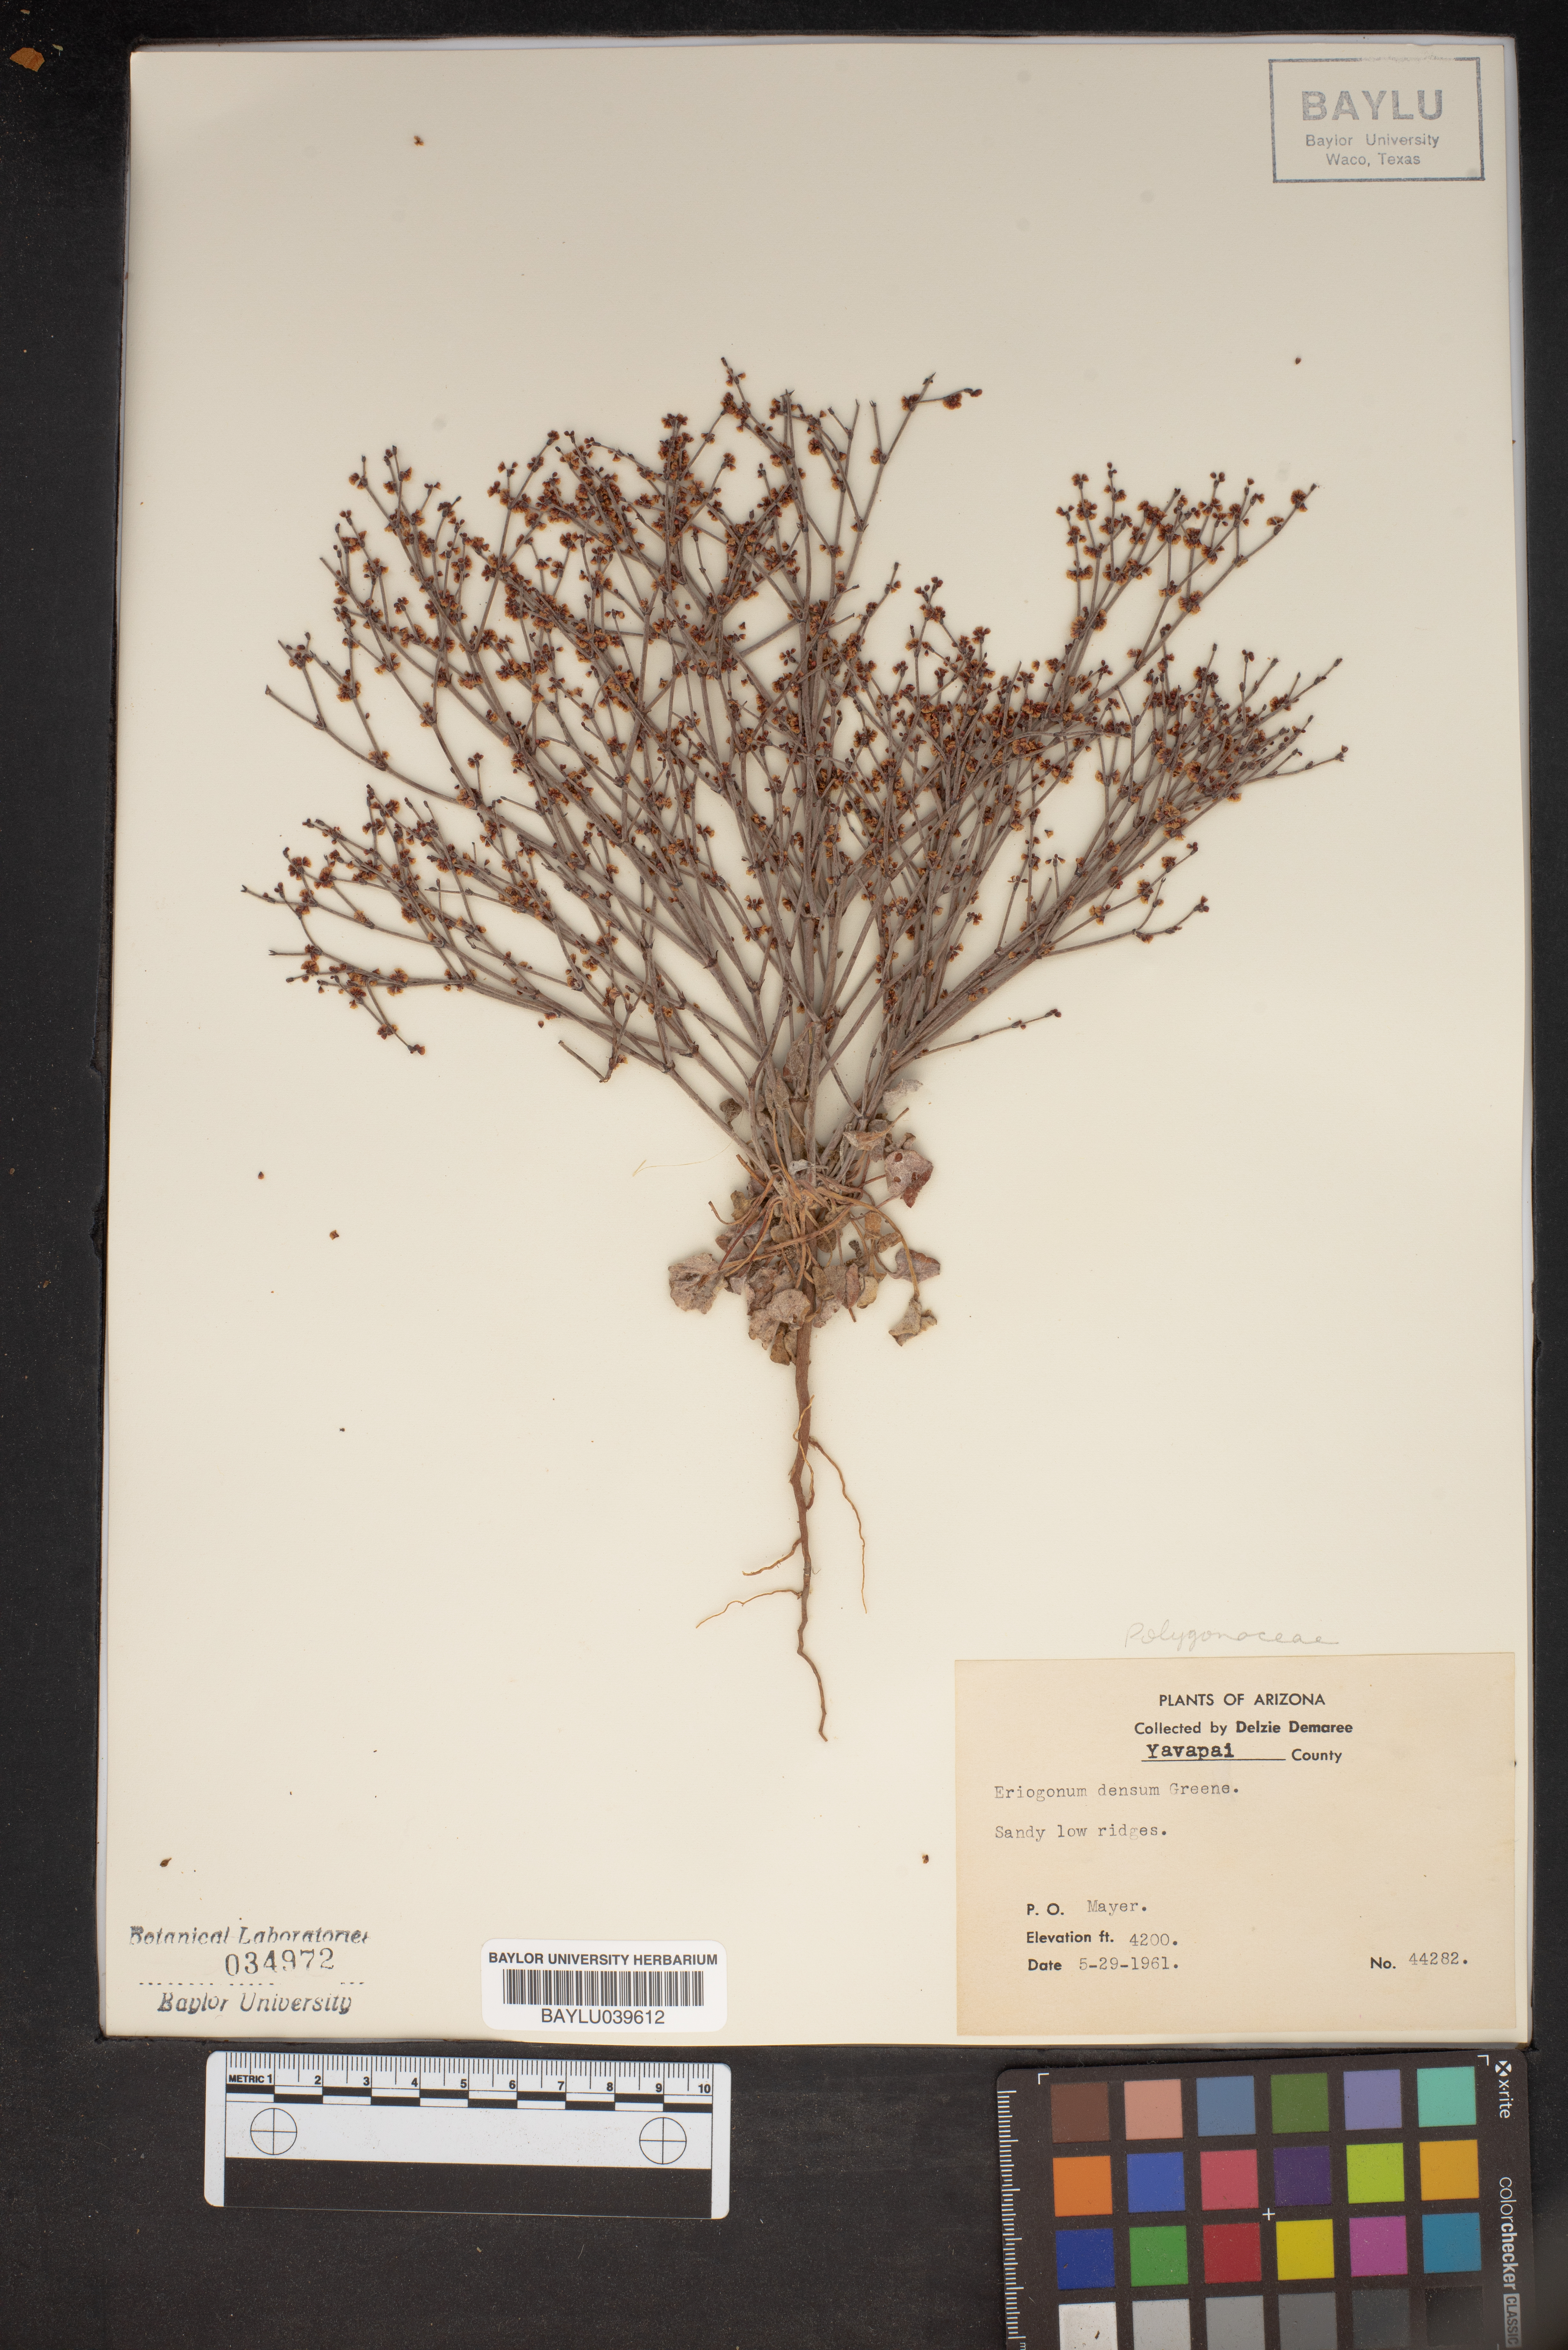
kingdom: Plantae
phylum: Tracheophyta
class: Magnoliopsida
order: Caryophyllales
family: Polygonaceae
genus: Eriogonum
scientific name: Eriogonum polycladon
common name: Sorrel wild buckwheat
